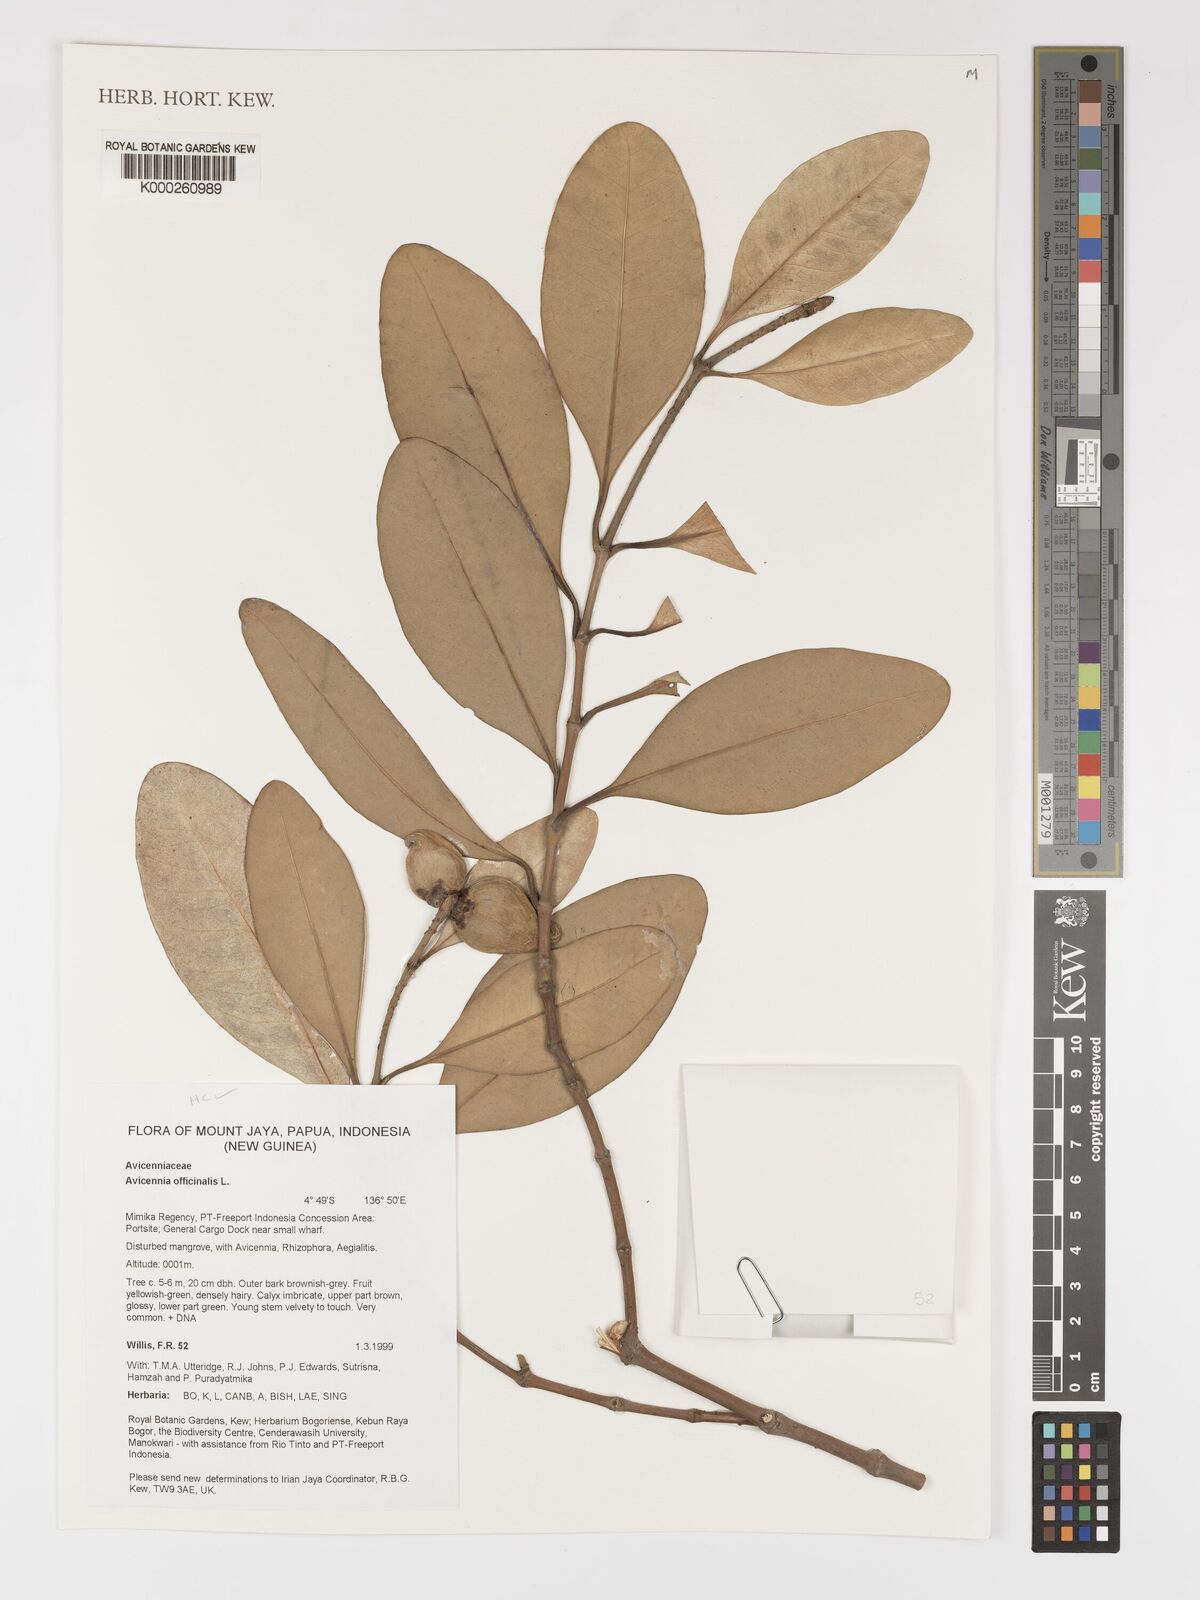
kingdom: Plantae
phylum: Tracheophyta
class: Magnoliopsida
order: Lamiales
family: Acanthaceae
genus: Avicennia
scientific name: Avicennia officinalis
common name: Baen
